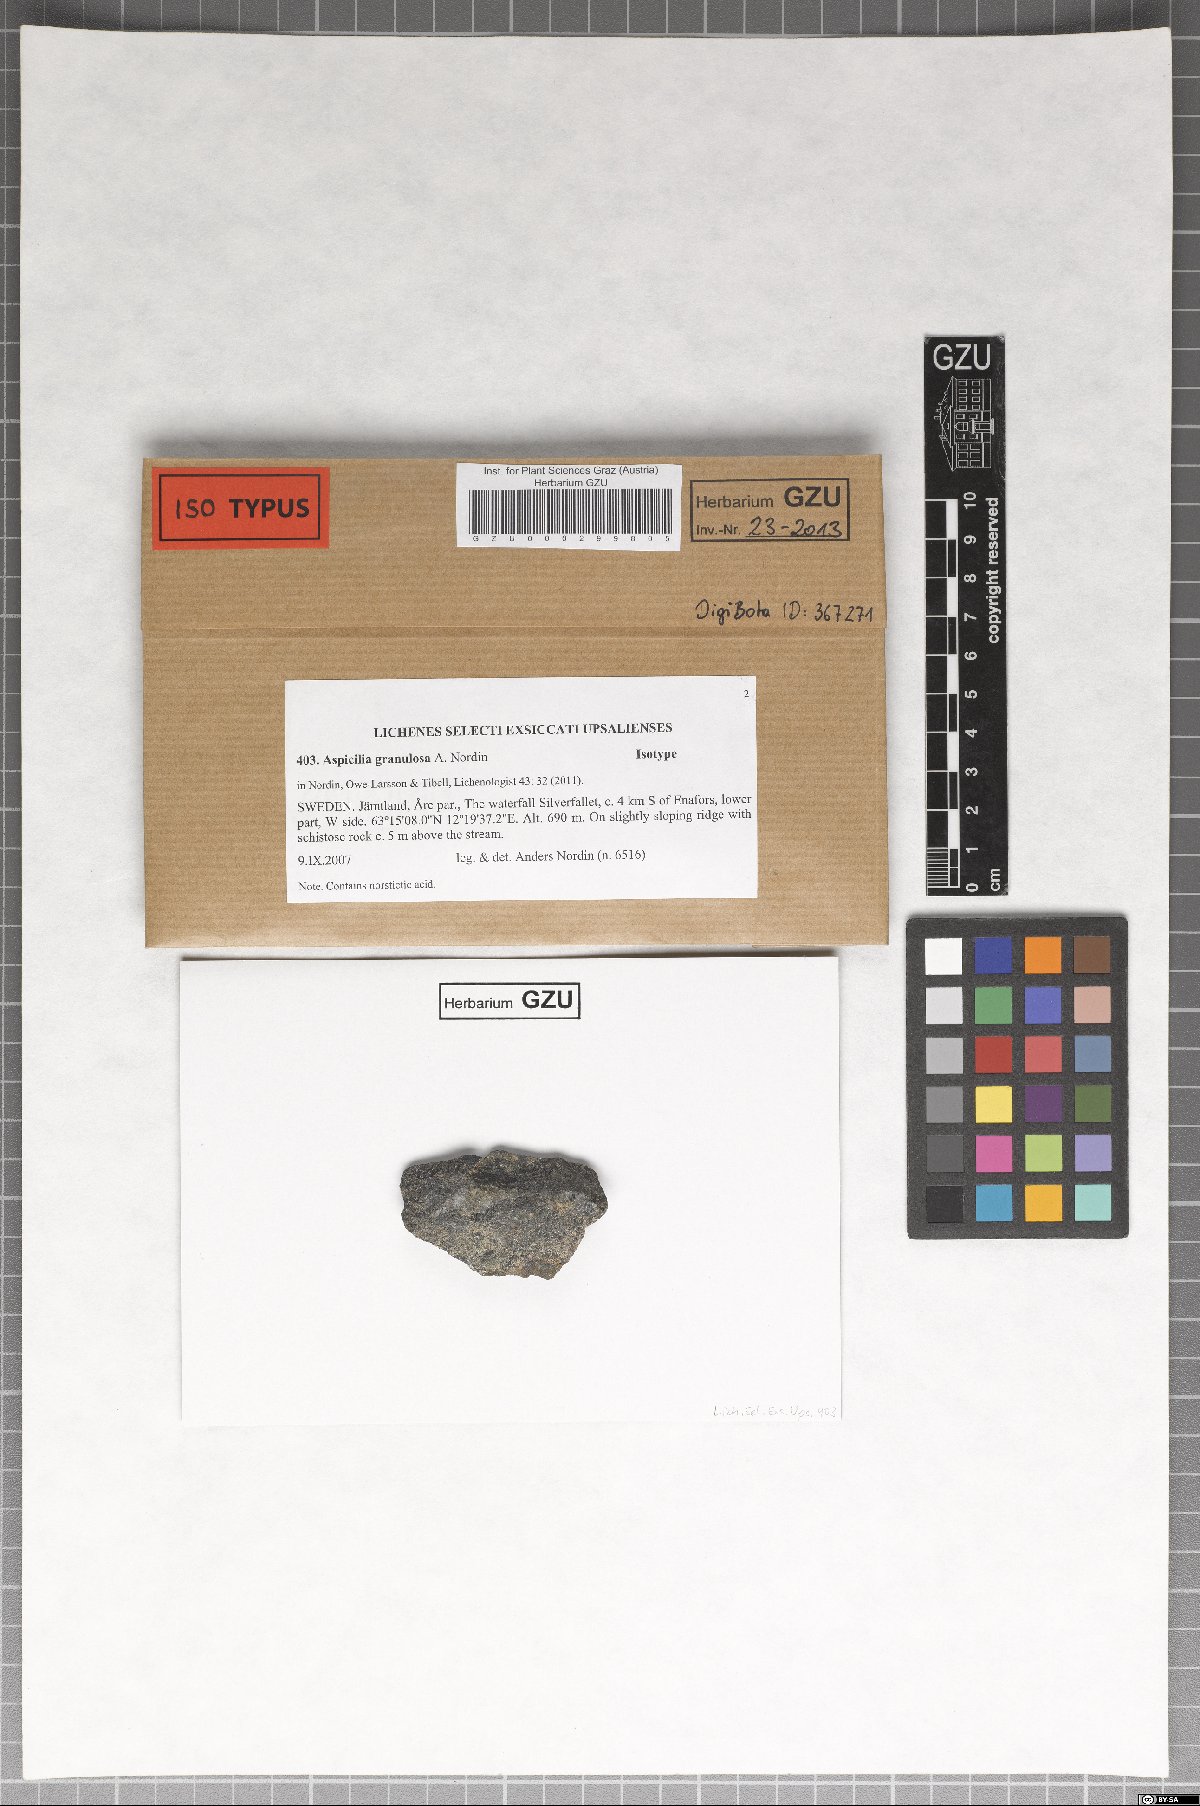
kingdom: Fungi
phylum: Ascomycota
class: Lecanoromycetes
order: Pertusariales
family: Megasporaceae
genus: Aspicilia
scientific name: Aspicilia granulosa
